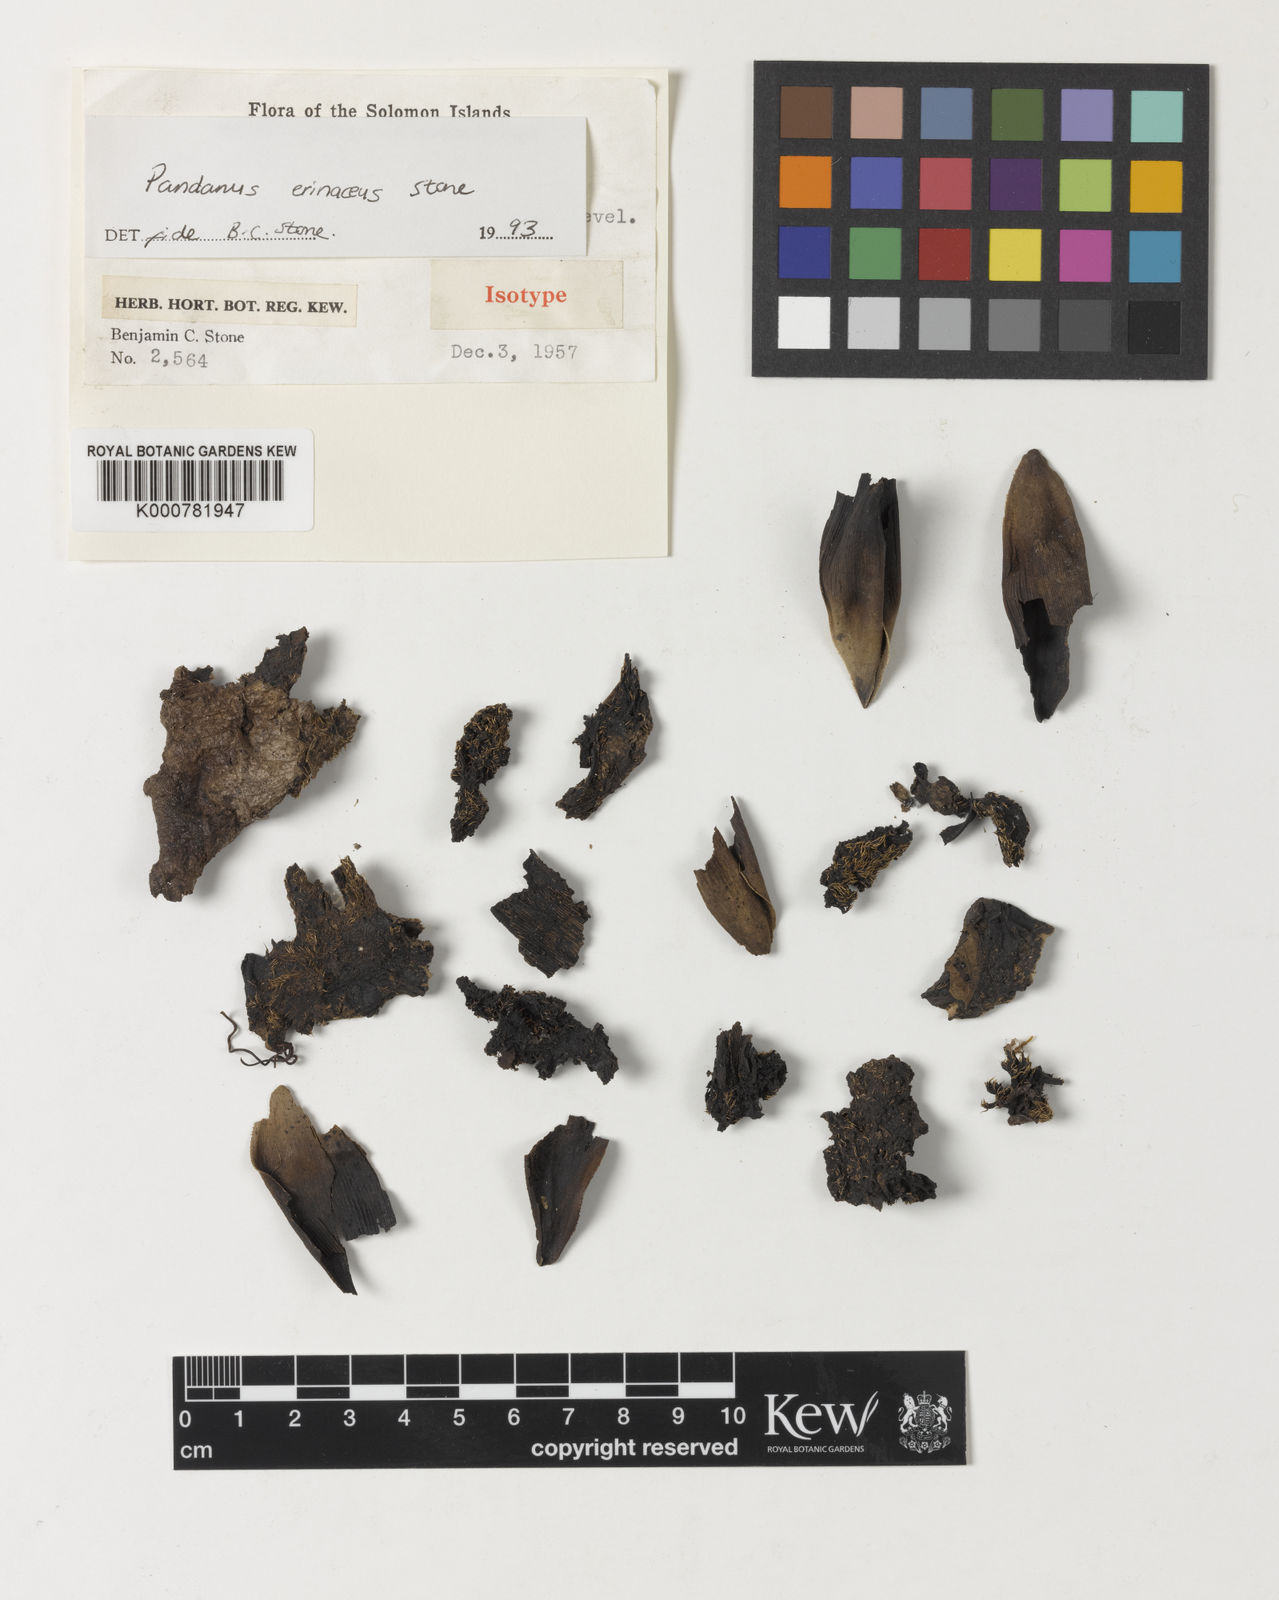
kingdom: Plantae
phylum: Tracheophyta
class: Liliopsida
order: Pandanales
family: Pandanaceae
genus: Benstonea
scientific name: Benstonea stenocarpa
